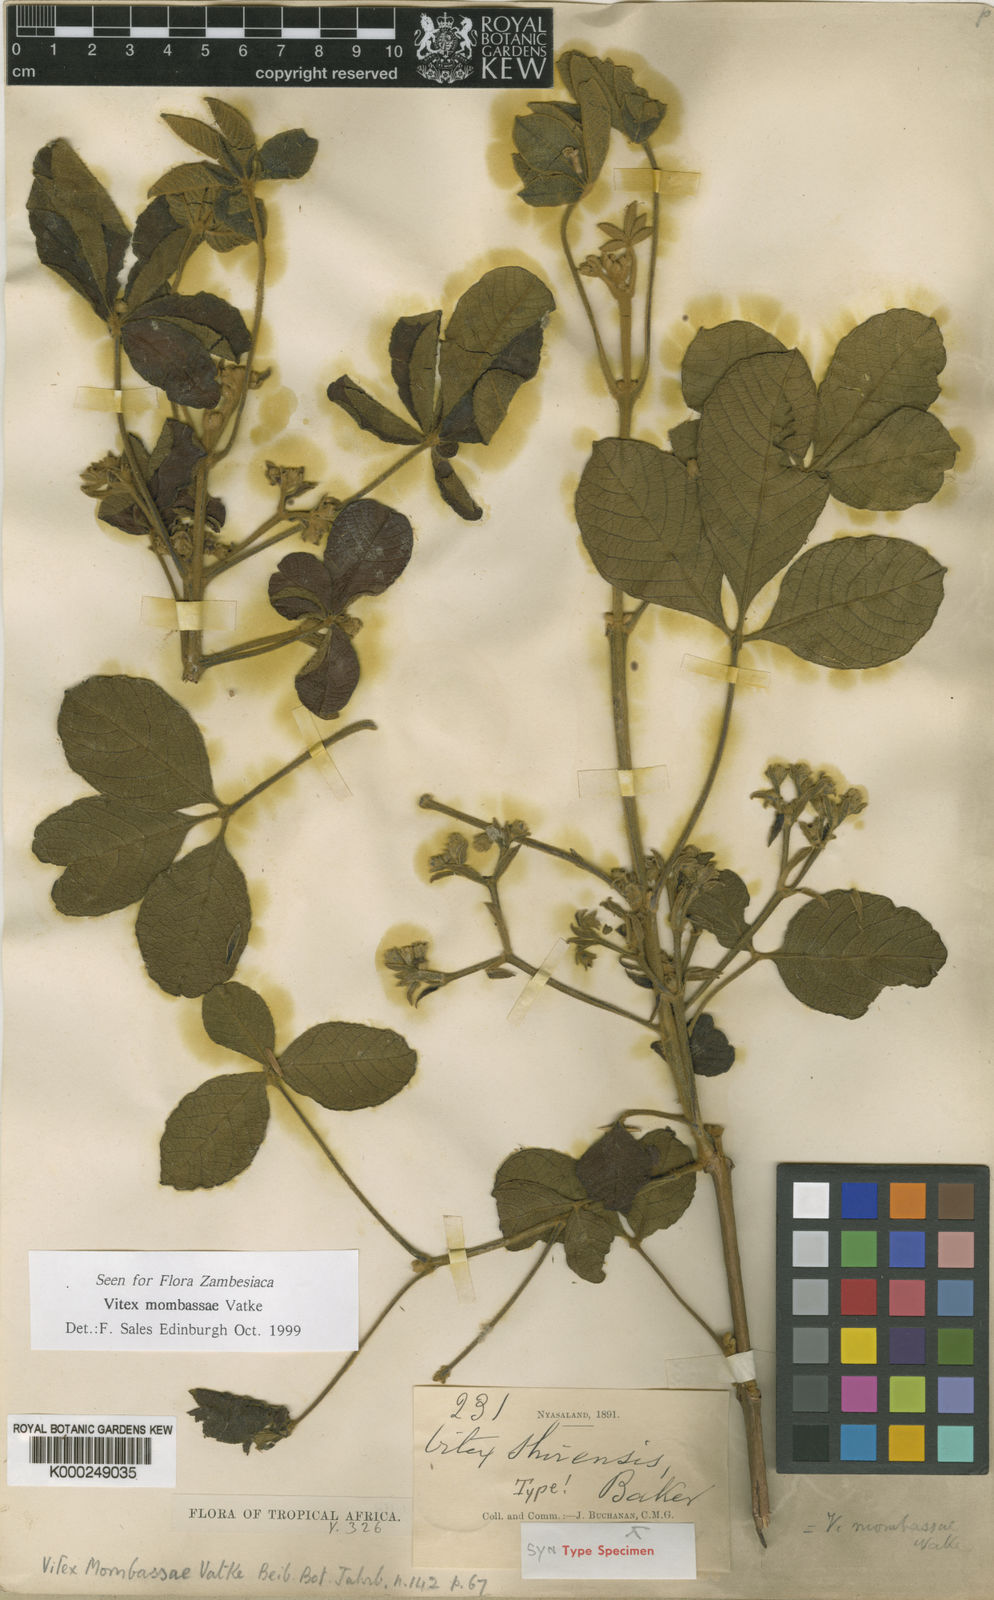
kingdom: Plantae
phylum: Tracheophyta
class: Magnoliopsida
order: Lamiales
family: Lamiaceae
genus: Vitex
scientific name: Vitex mombassae
